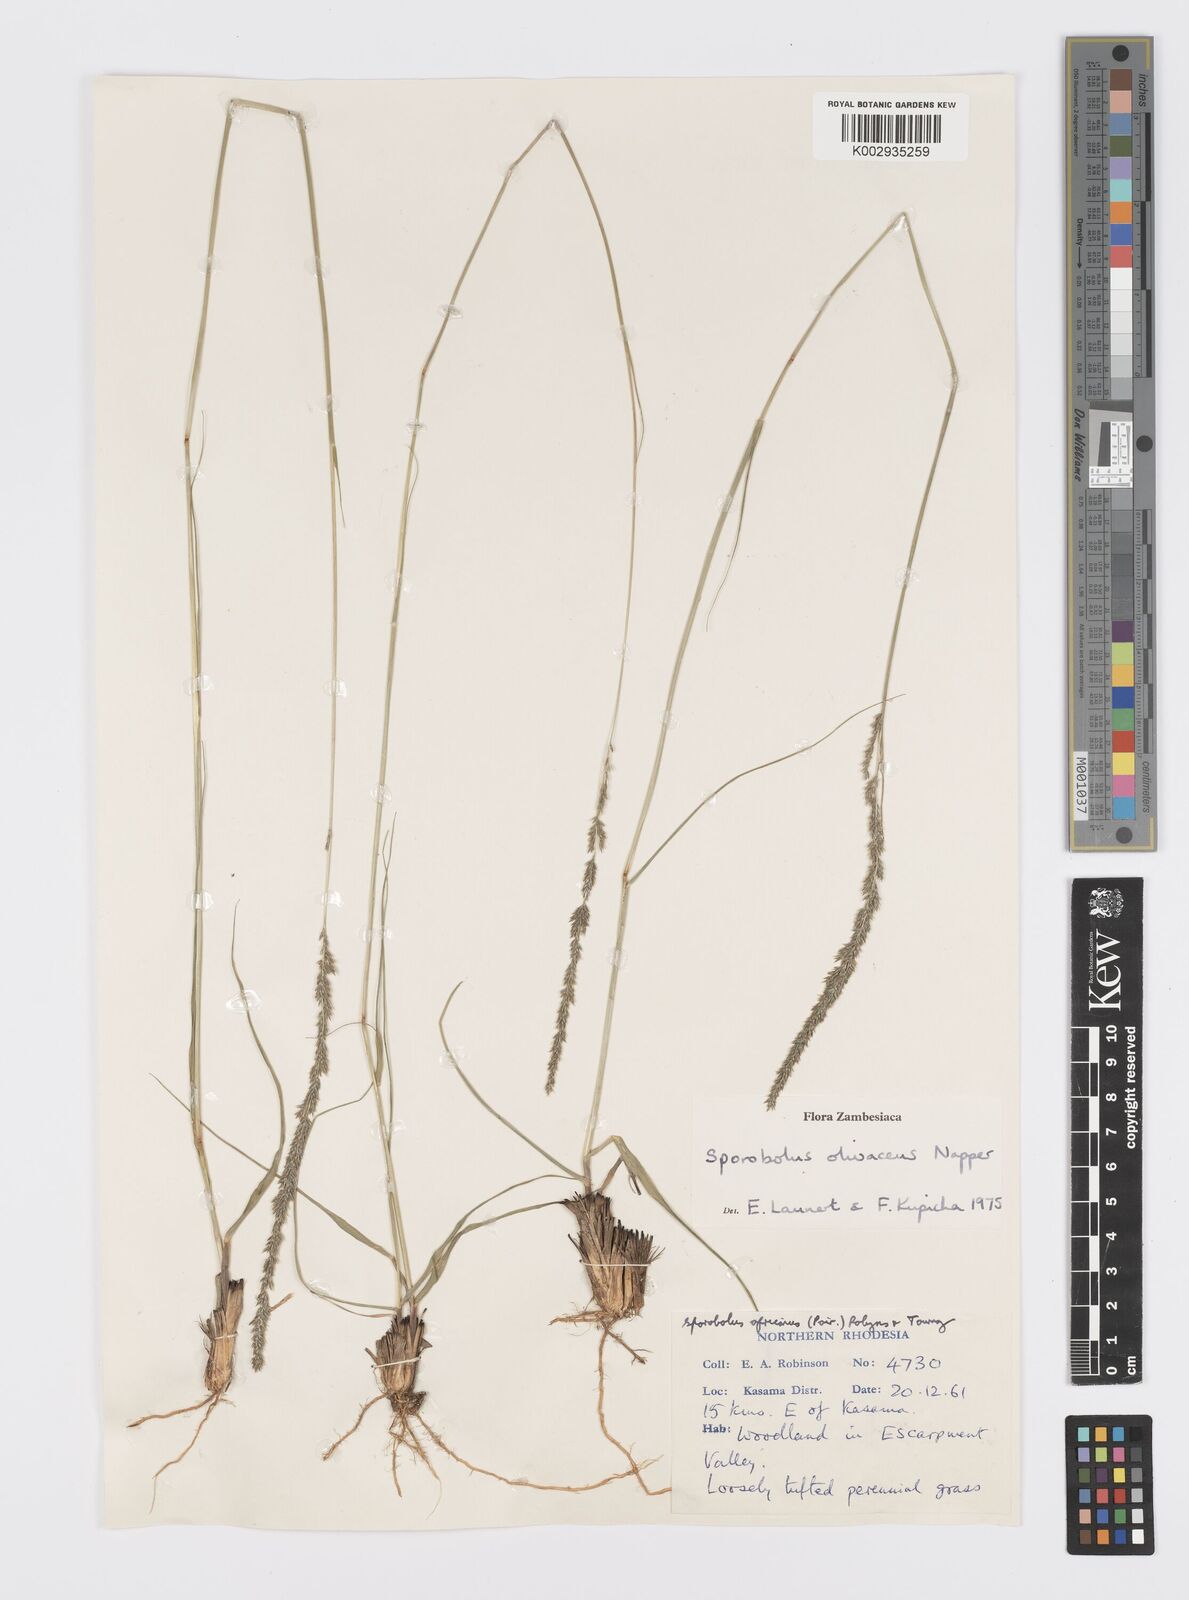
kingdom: Plantae
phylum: Tracheophyta
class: Liliopsida
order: Poales
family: Poaceae
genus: Sporobolus
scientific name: Sporobolus olivaceus
